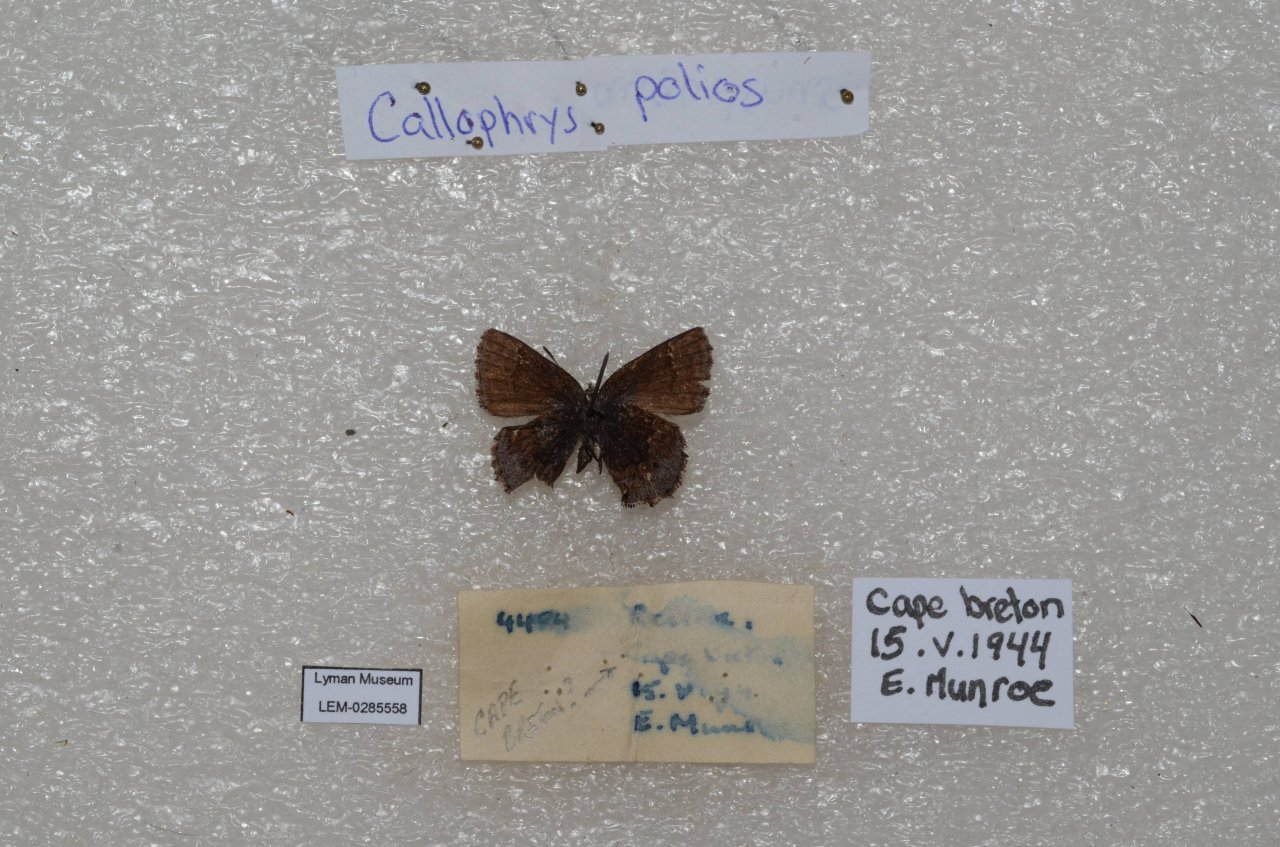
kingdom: Animalia
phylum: Arthropoda
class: Insecta
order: Lepidoptera
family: Lycaenidae
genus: Callophrys
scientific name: Callophrys polios
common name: Hoary Elfin
